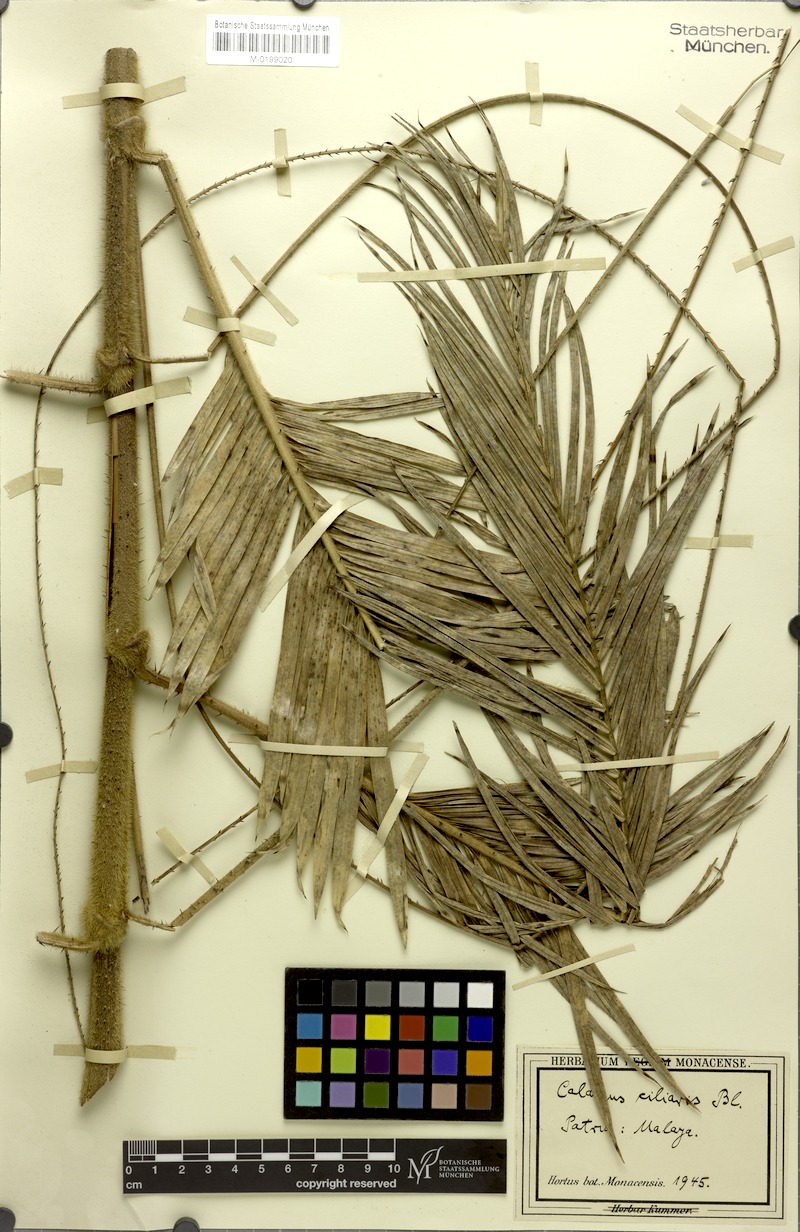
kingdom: Plantae
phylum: Tracheophyta
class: Liliopsida
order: Arecales
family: Arecaceae
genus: Calamus
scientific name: Calamus ciliaris
